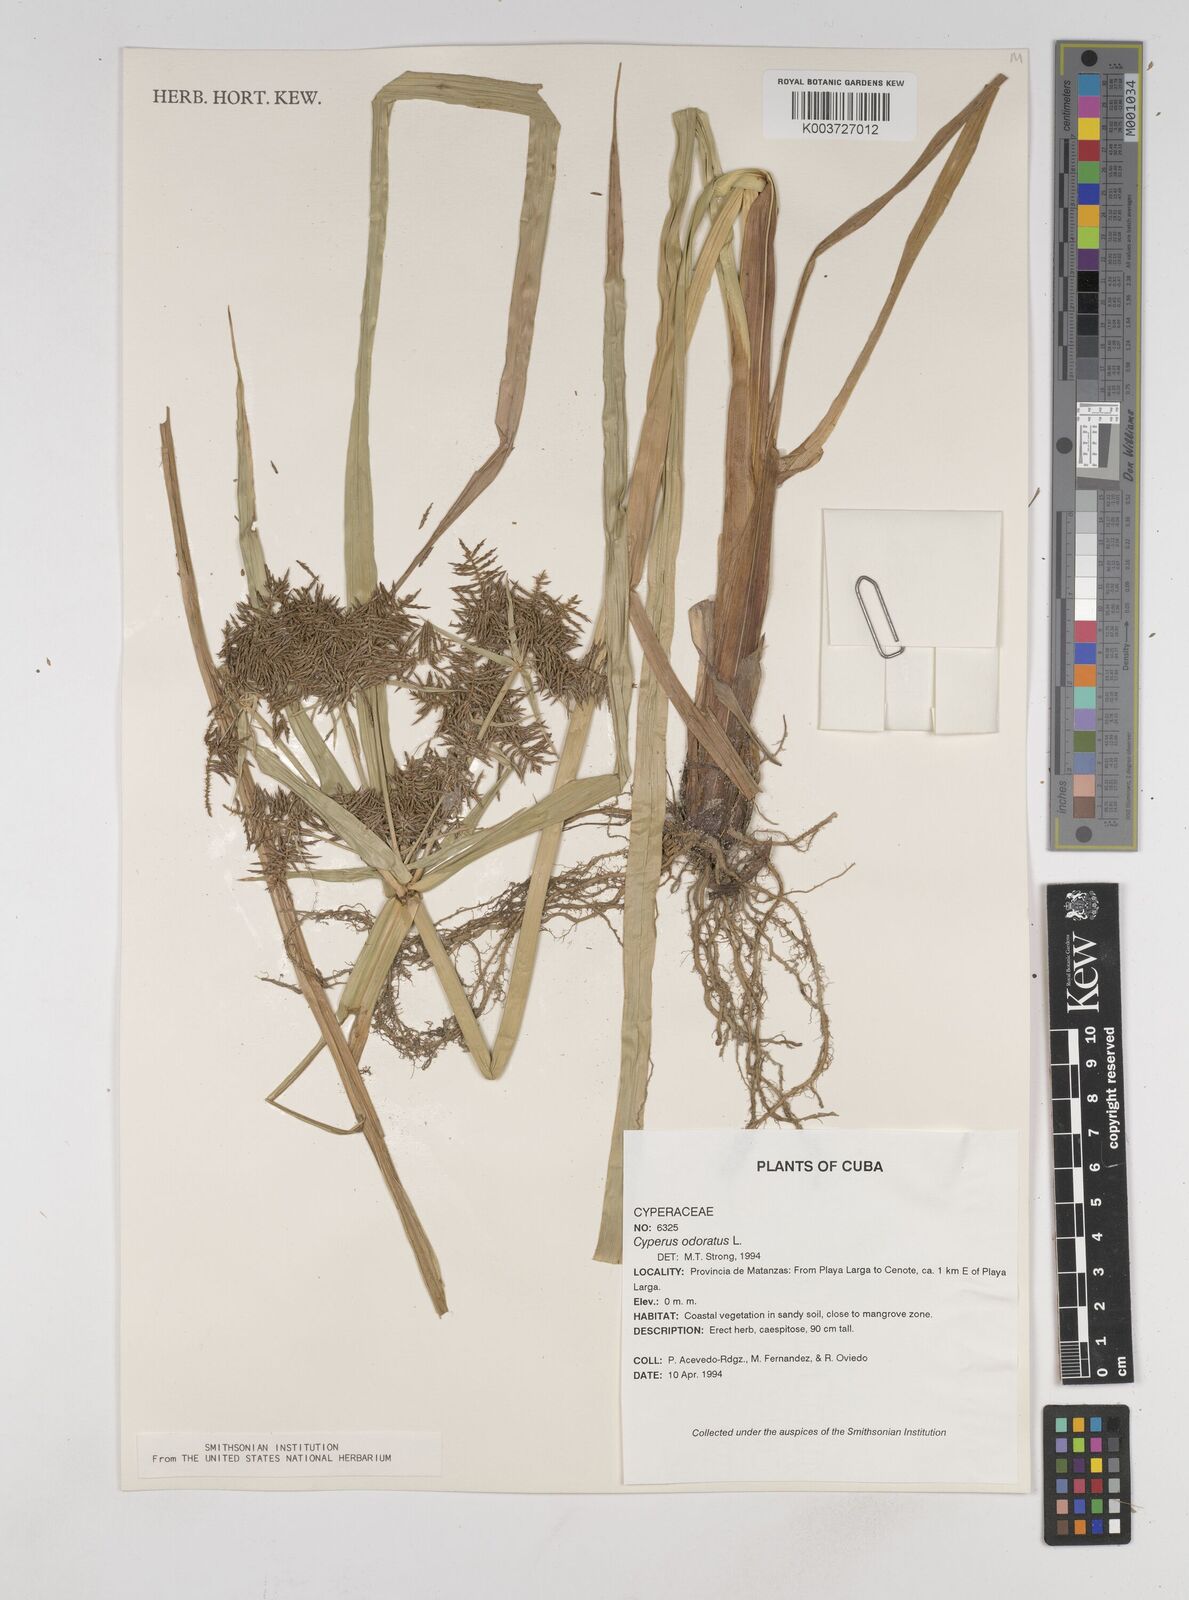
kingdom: Plantae
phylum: Tracheophyta
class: Liliopsida
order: Poales
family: Cyperaceae
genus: Cyperus
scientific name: Cyperus odoratus
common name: Fragrant flatsedge
